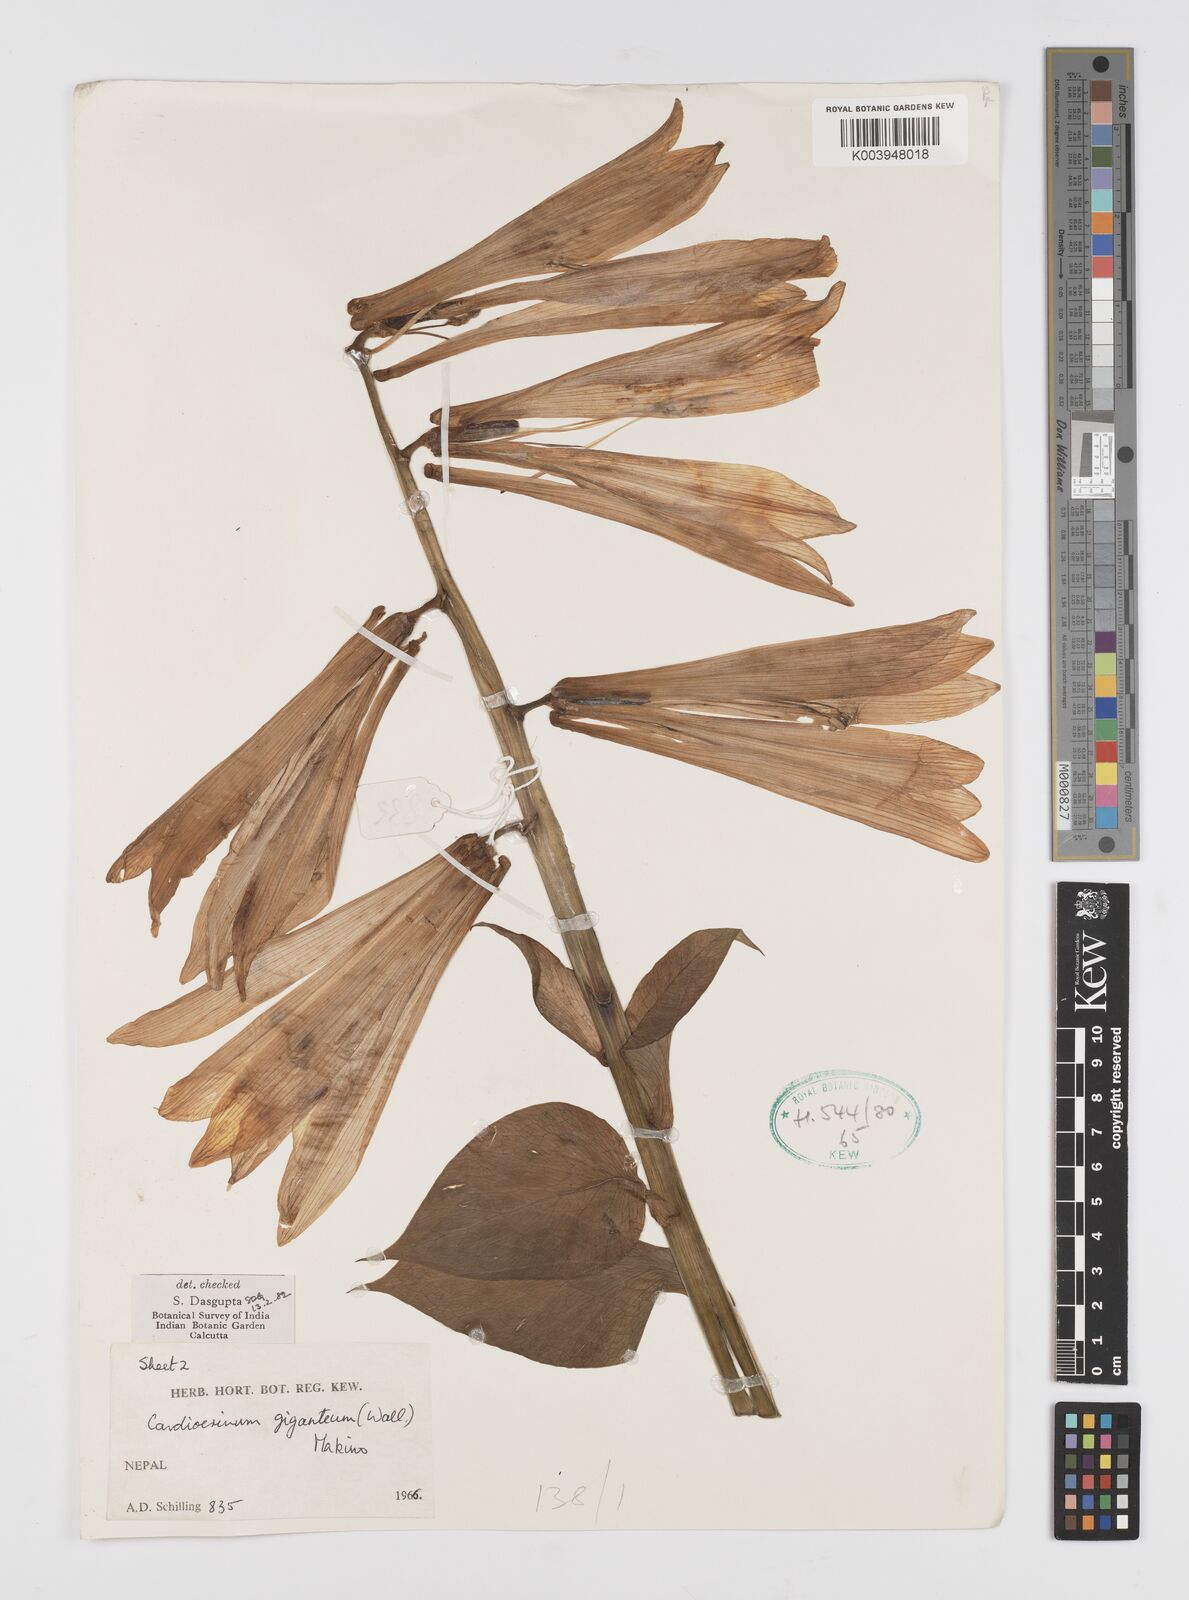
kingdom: Plantae
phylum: Tracheophyta
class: Liliopsida
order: Liliales
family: Liliaceae
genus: Cardiocrinum
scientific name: Cardiocrinum giganteum
